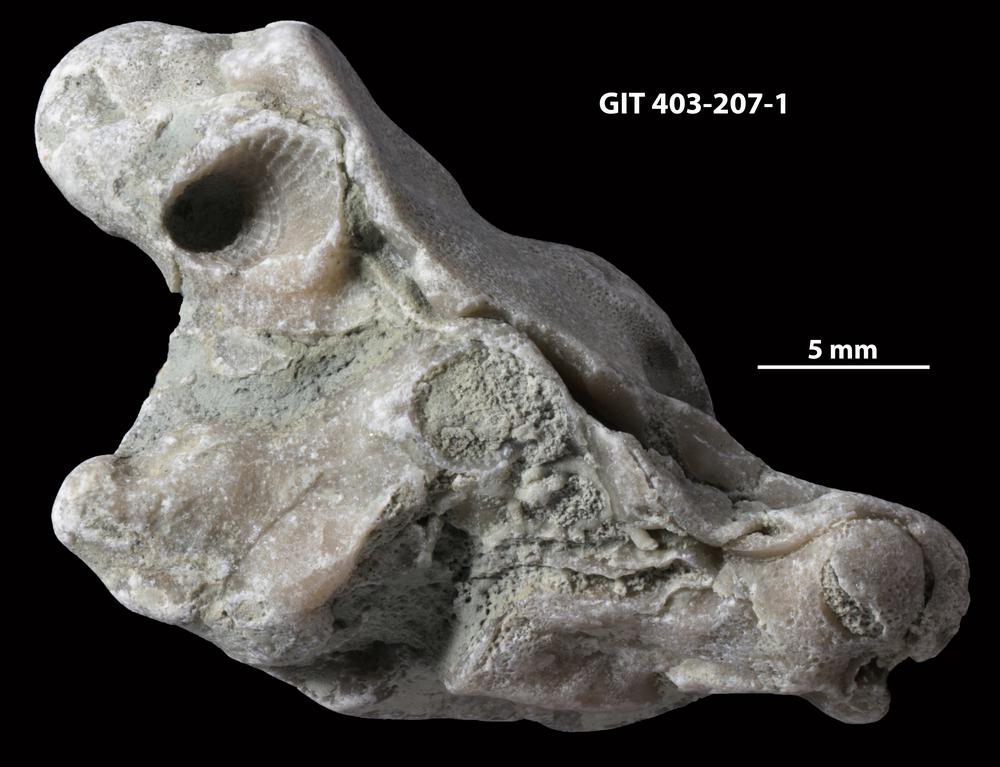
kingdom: Animalia
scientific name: Animalia
